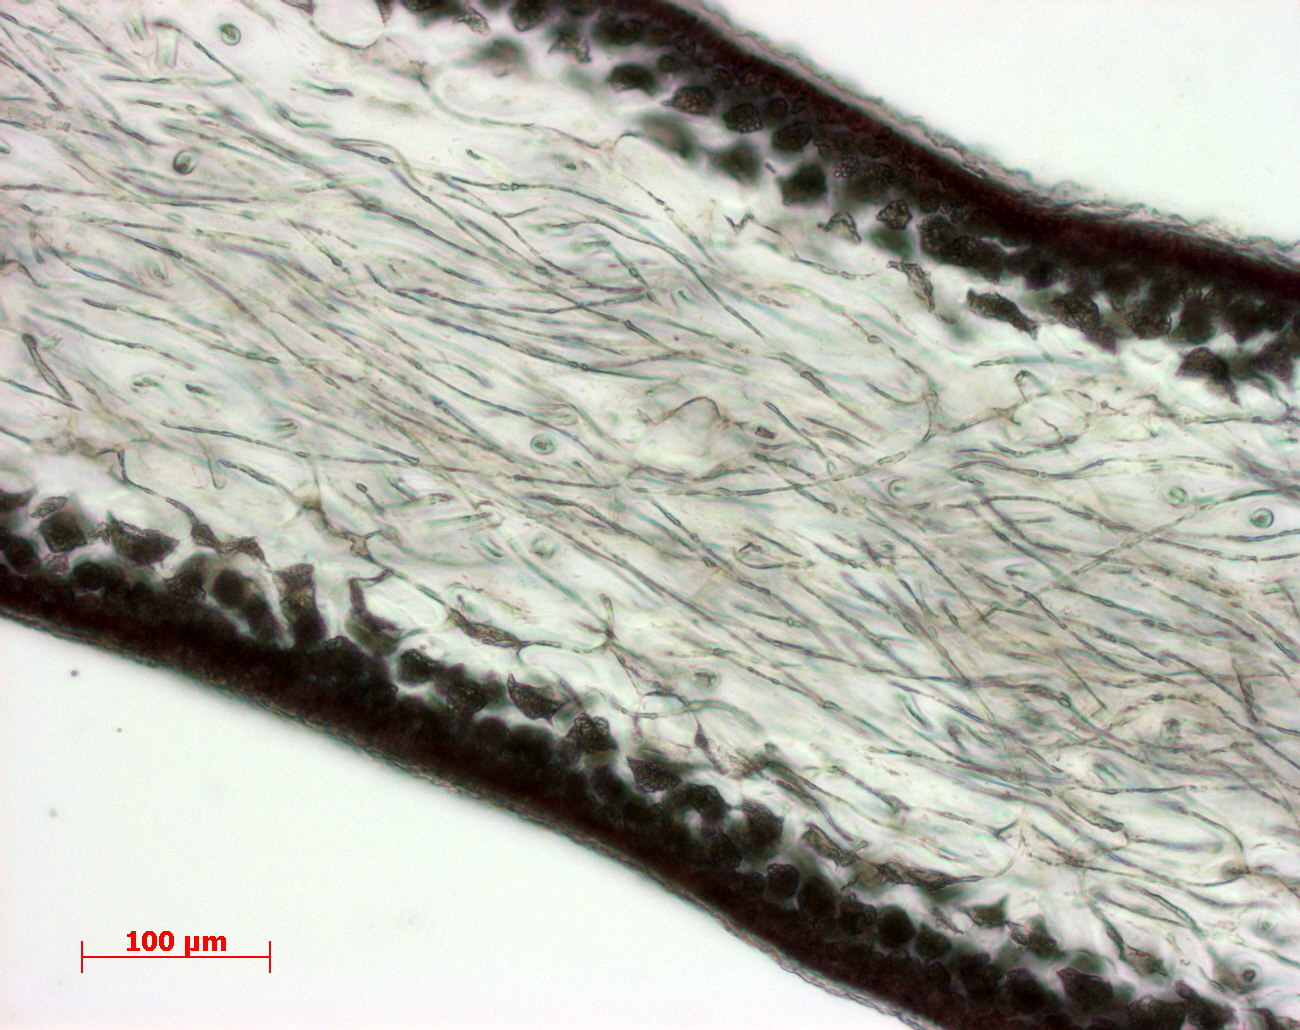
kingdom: Plantae
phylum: Rhodophyta
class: Florideophyceae
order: Gigartinales
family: Kallymeniaceae
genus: Psaromenia
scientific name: Psaromenia berggrenii
